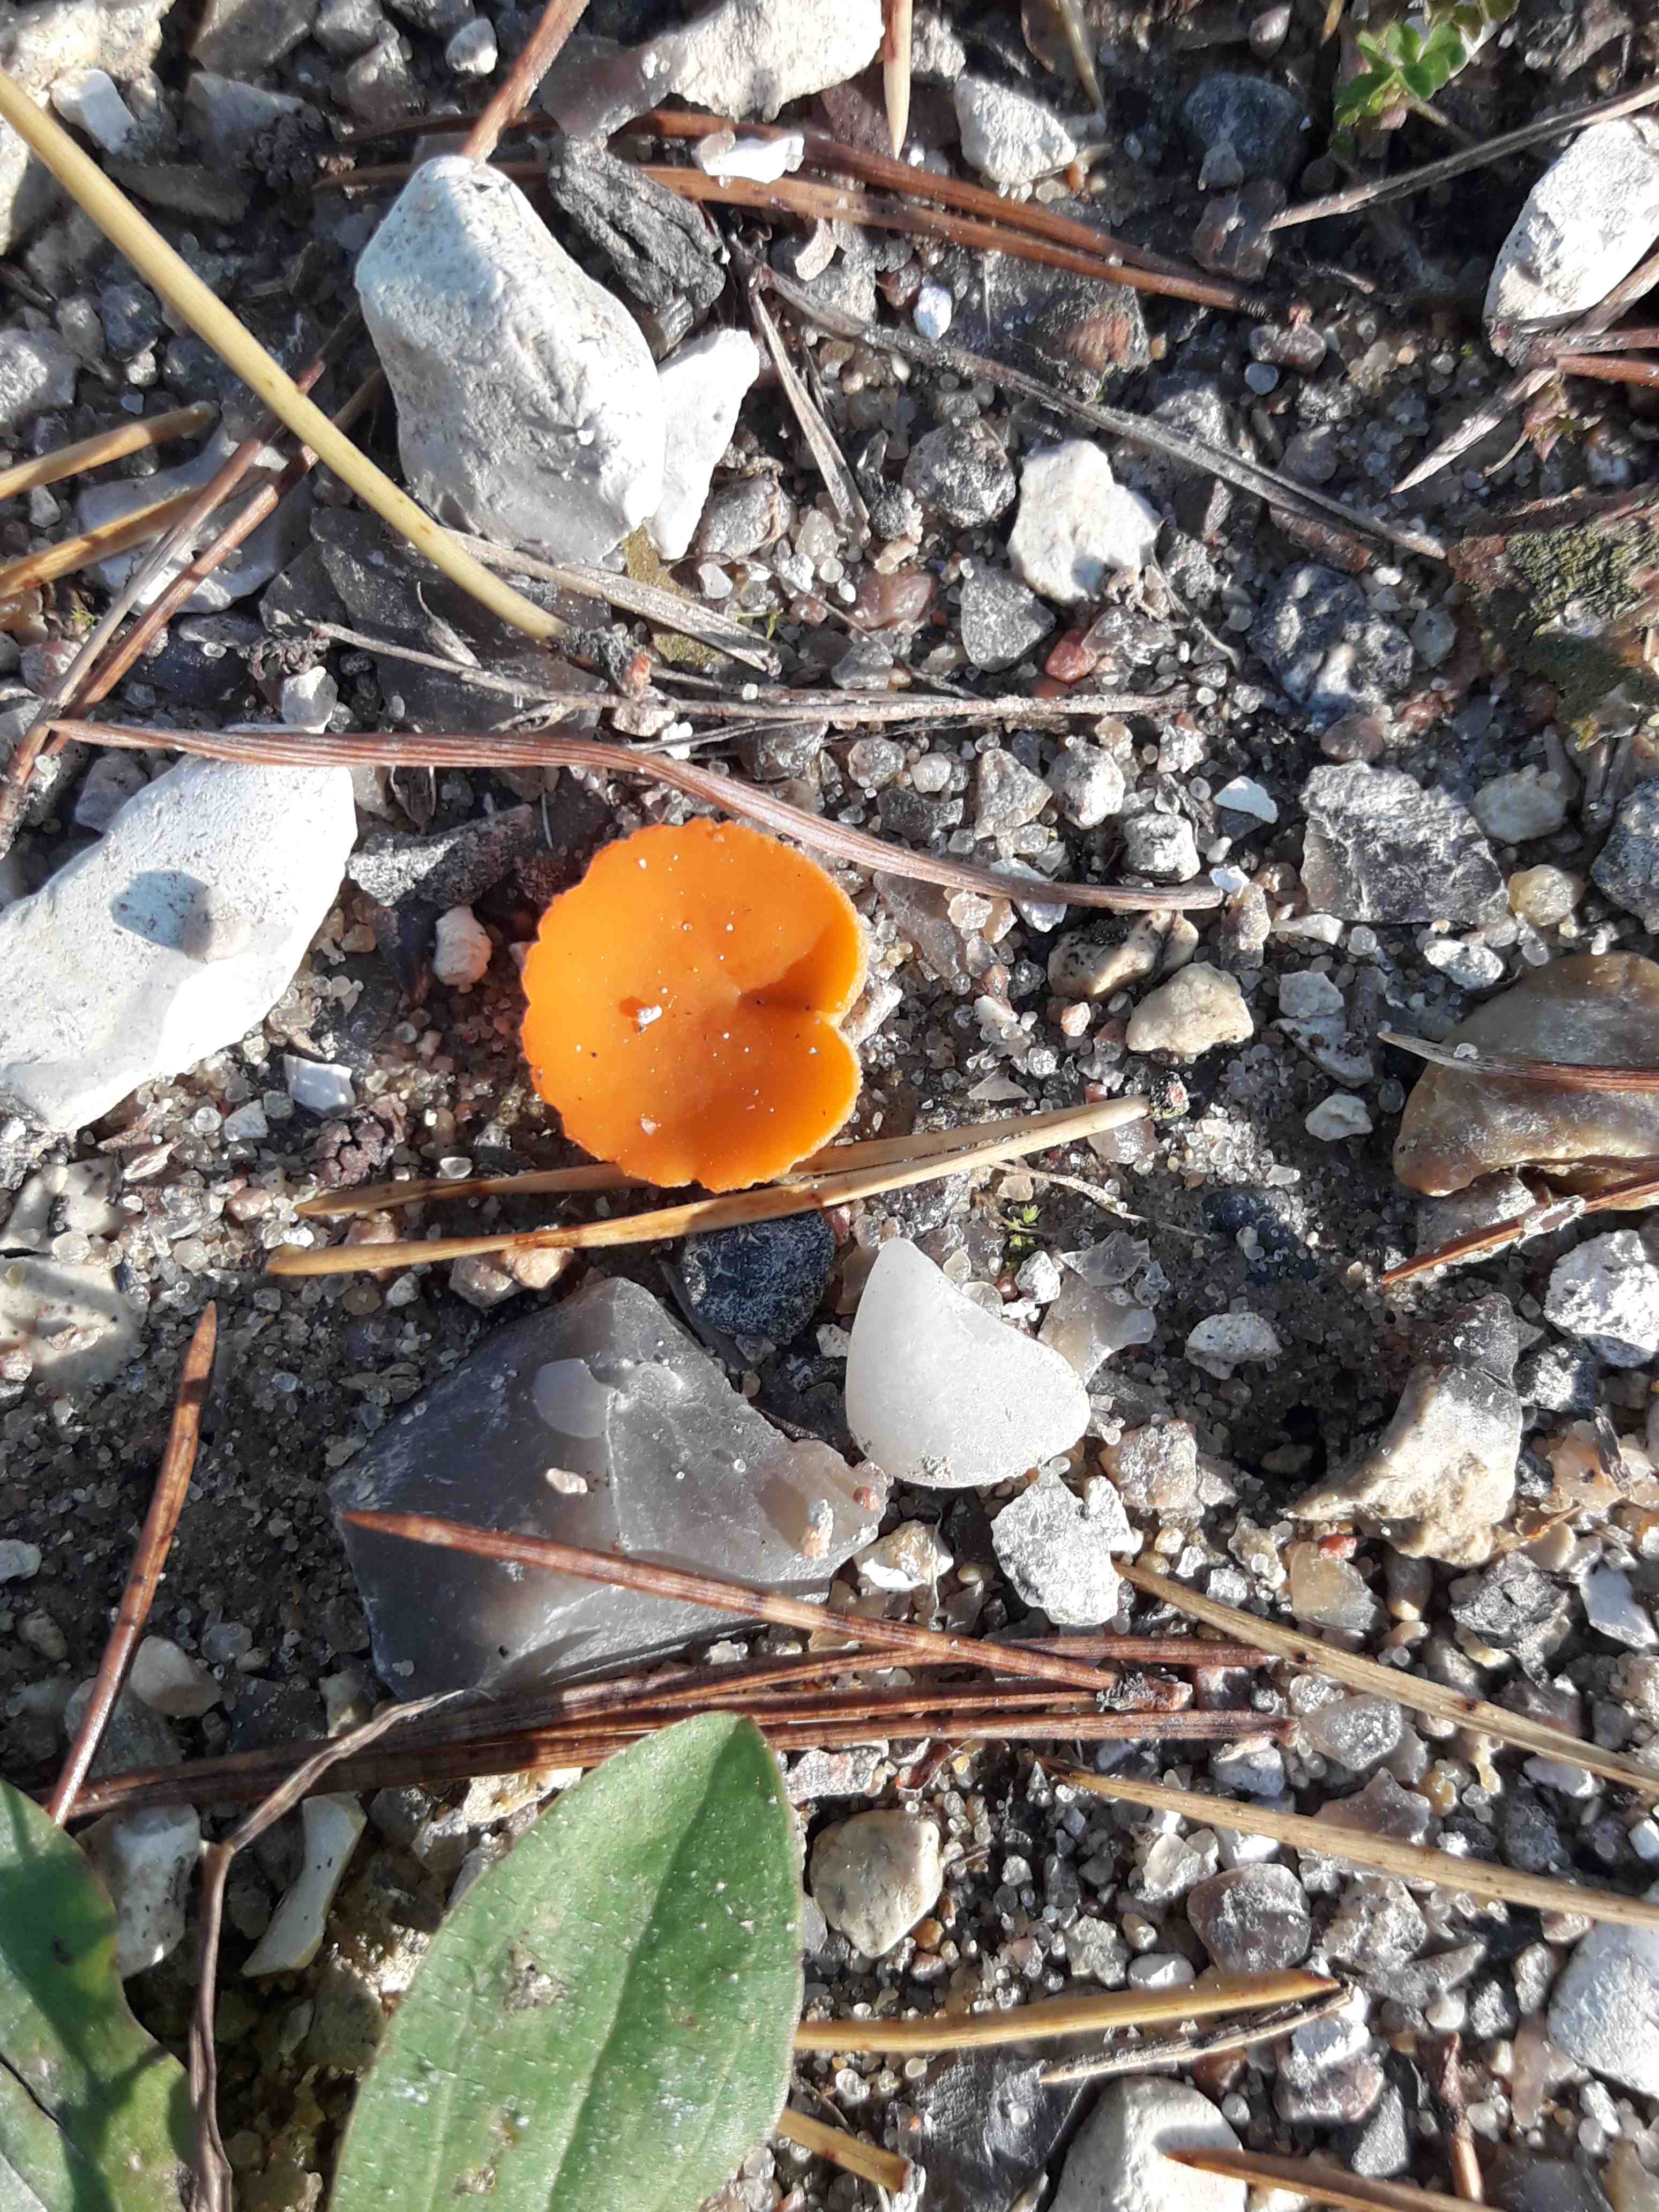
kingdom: Fungi
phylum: Ascomycota
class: Pezizomycetes
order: Pezizales
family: Pyronemataceae
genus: Aleuria
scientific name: Aleuria aurantia
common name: almindelig orangebæger
